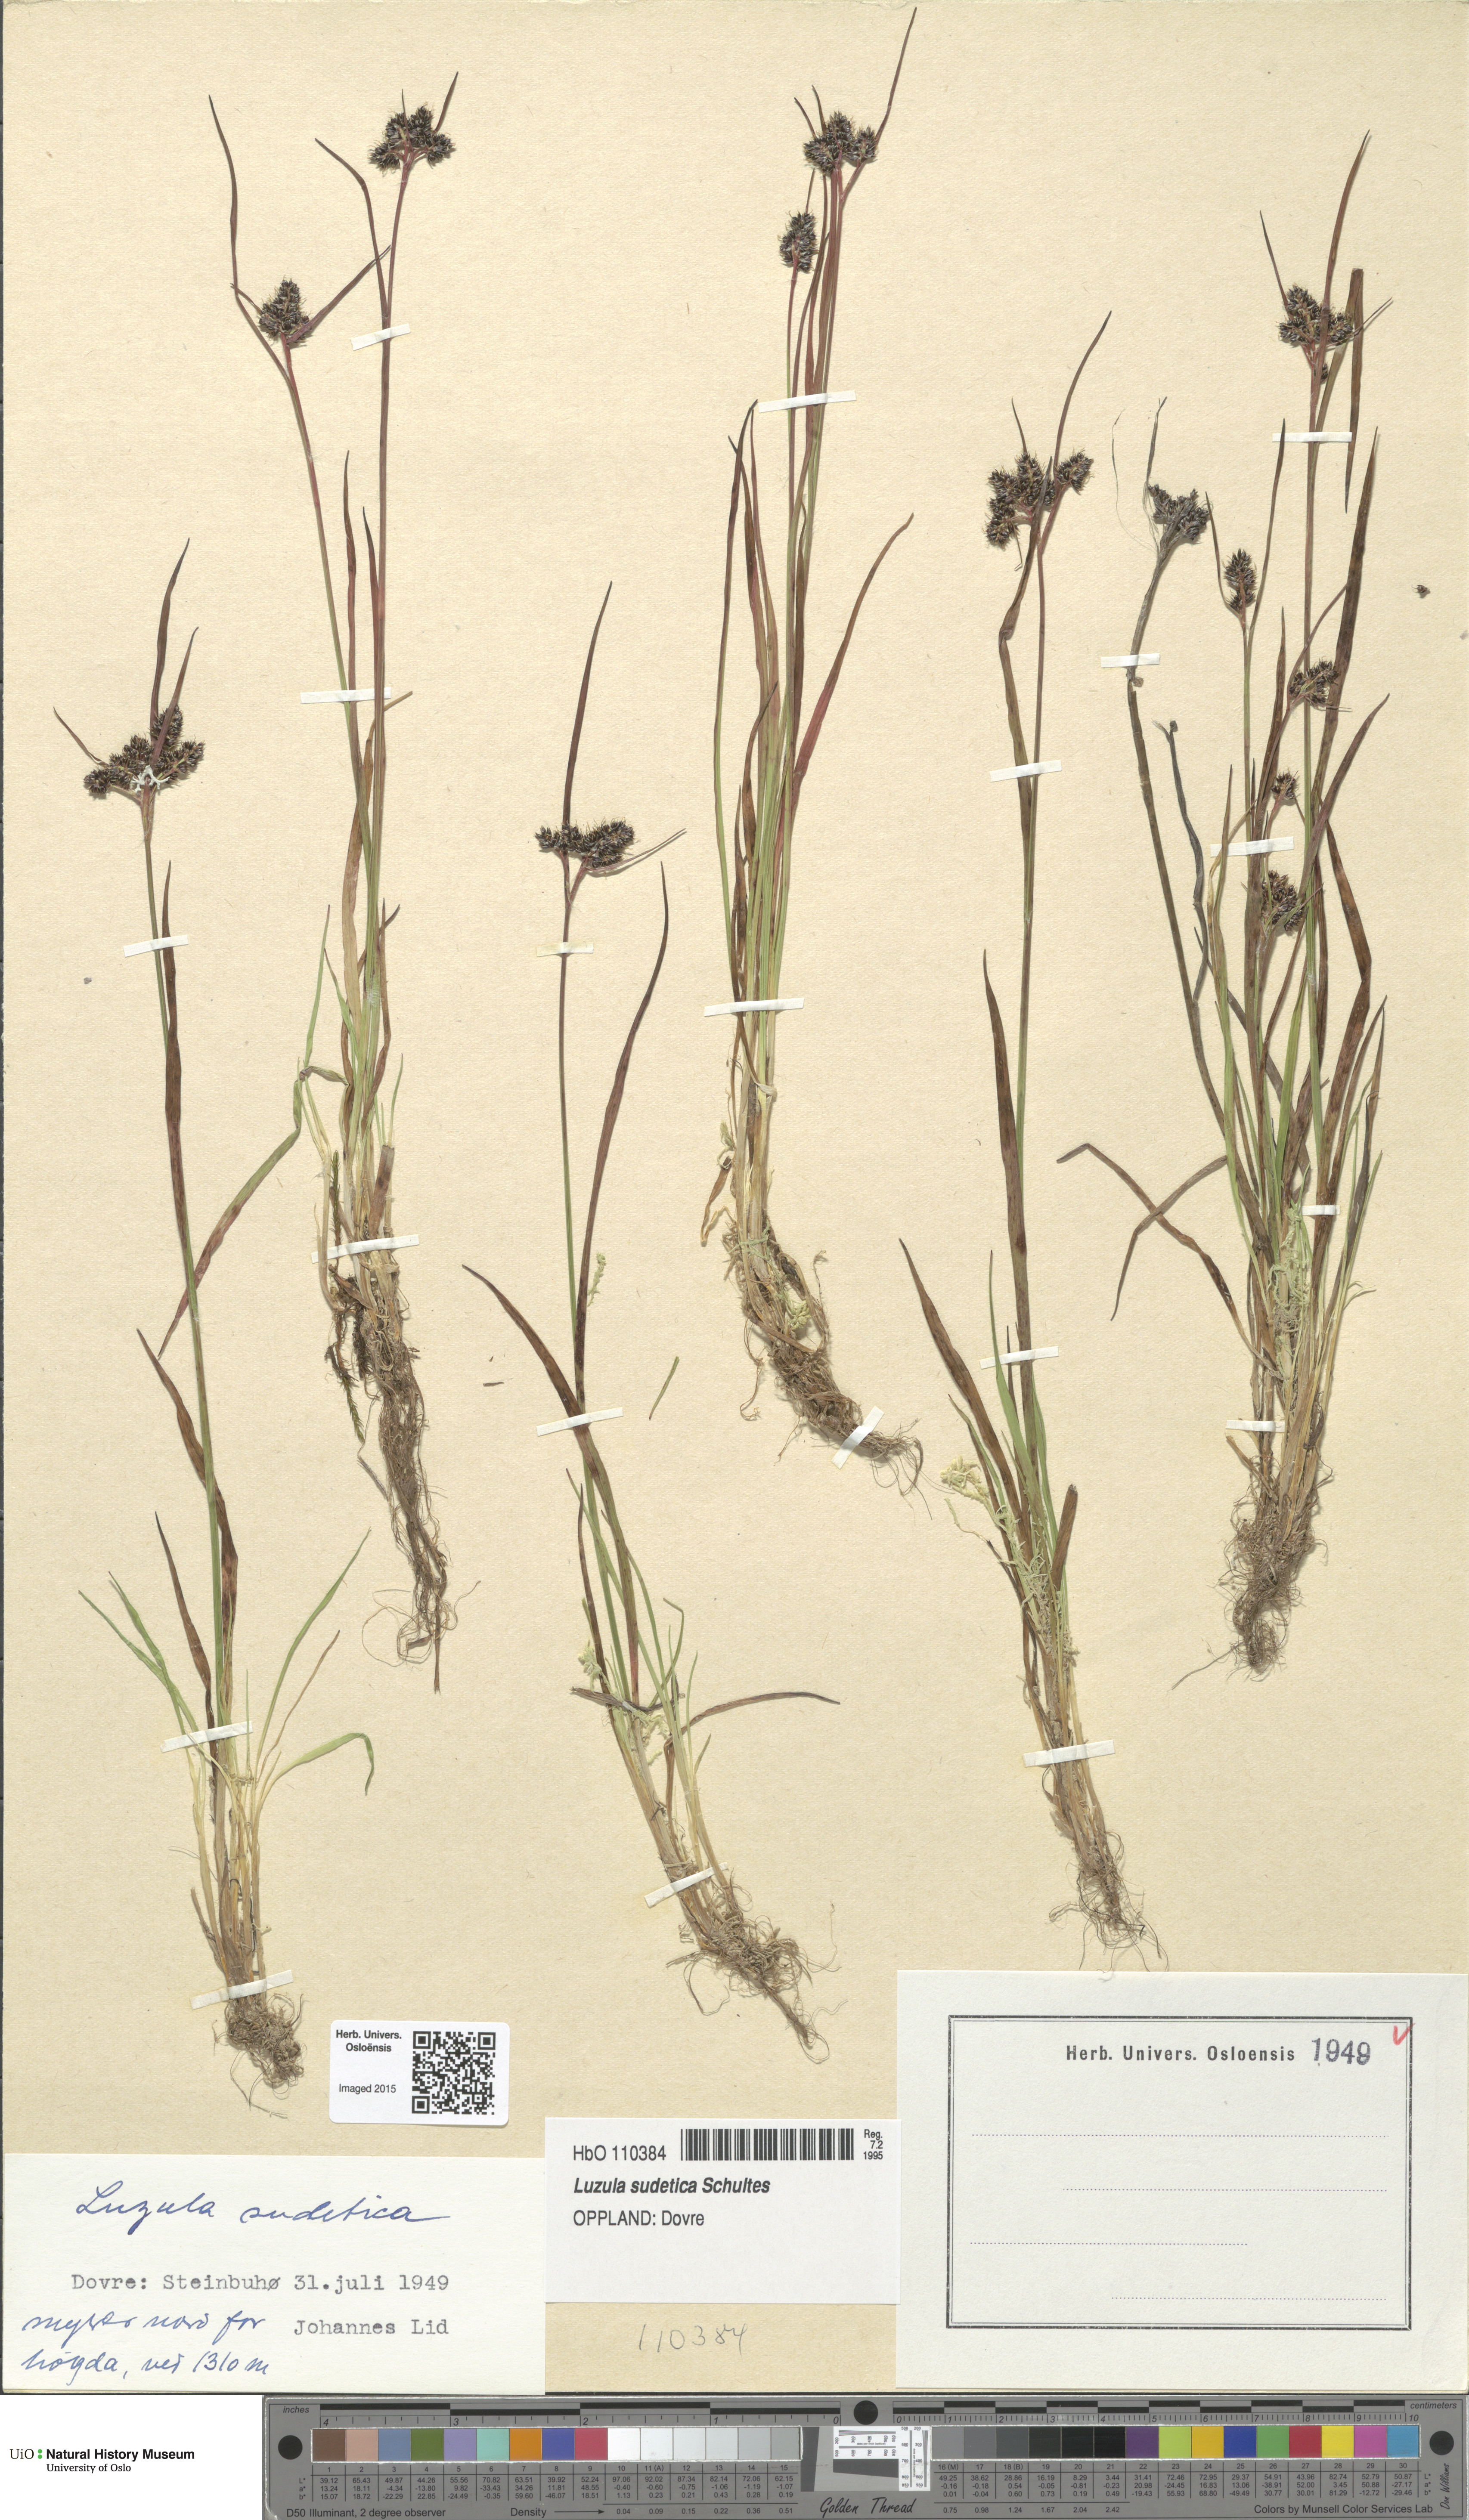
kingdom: Plantae
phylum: Tracheophyta
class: Liliopsida
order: Poales
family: Juncaceae
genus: Luzula
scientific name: Luzula sudetica
